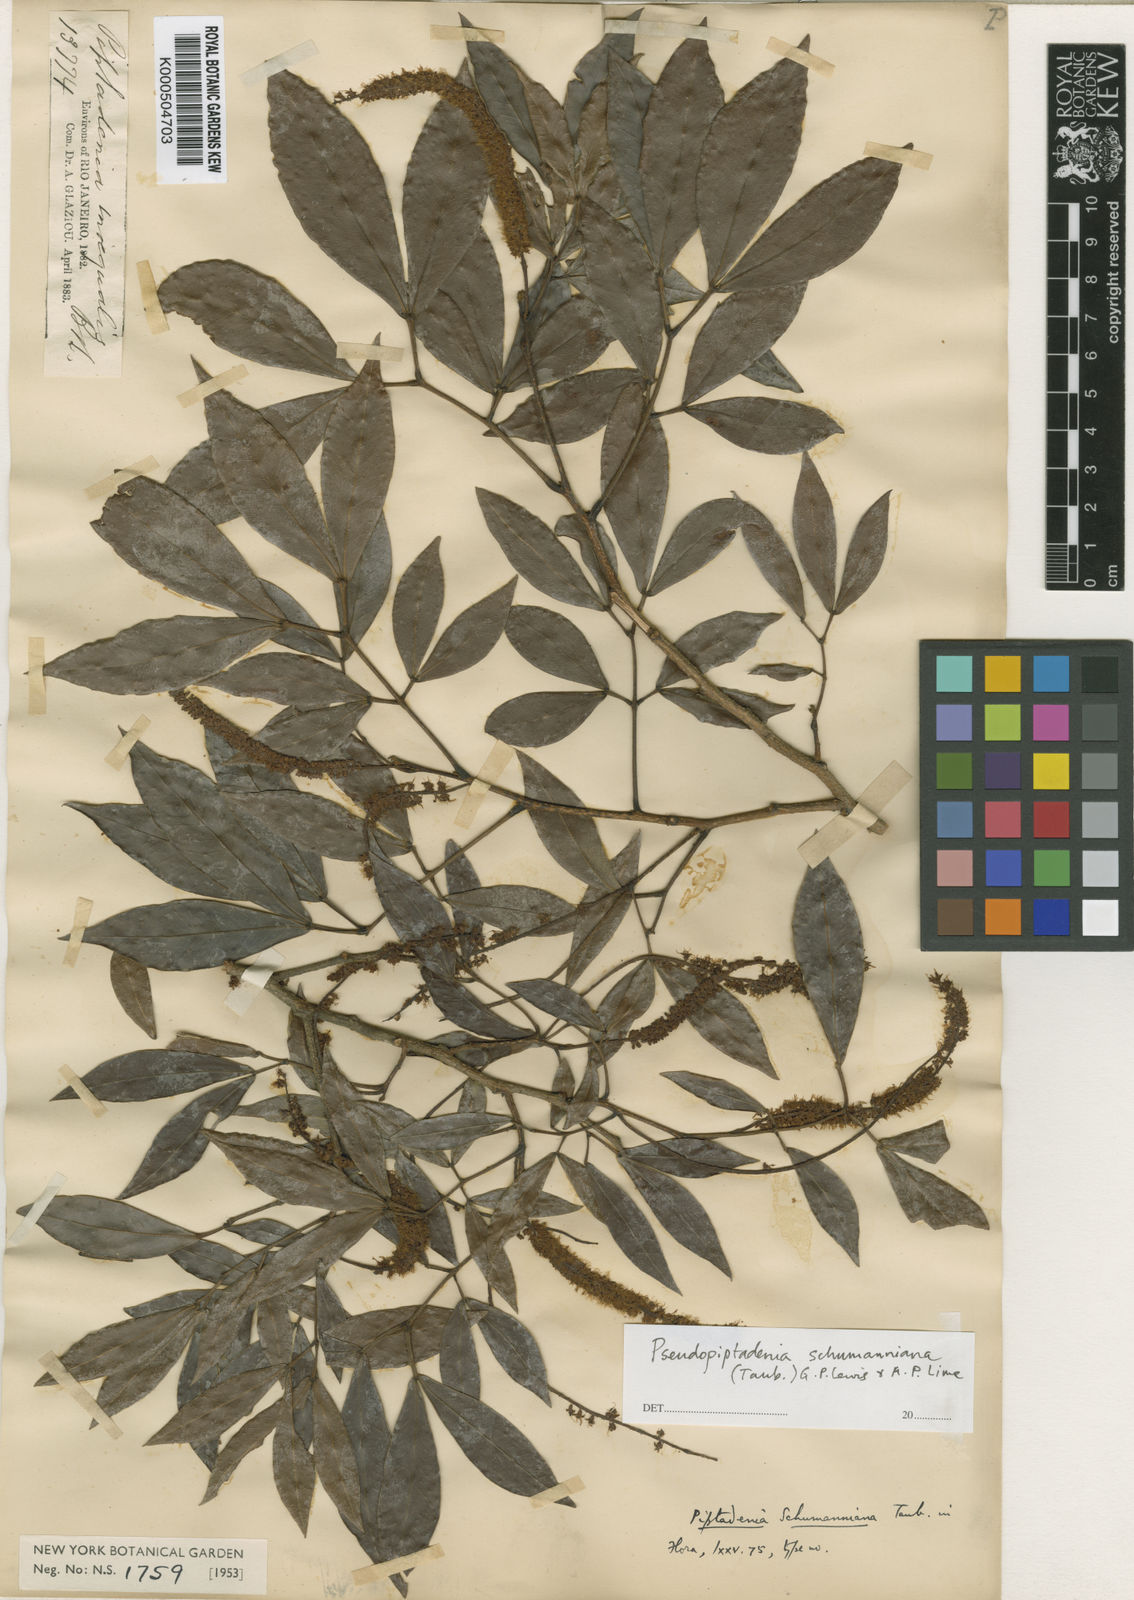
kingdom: Plantae
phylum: Tracheophyta
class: Magnoliopsida
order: Fabales
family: Fabaceae
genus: Pseudopiptadenia
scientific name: Pseudopiptadenia schumanniana
